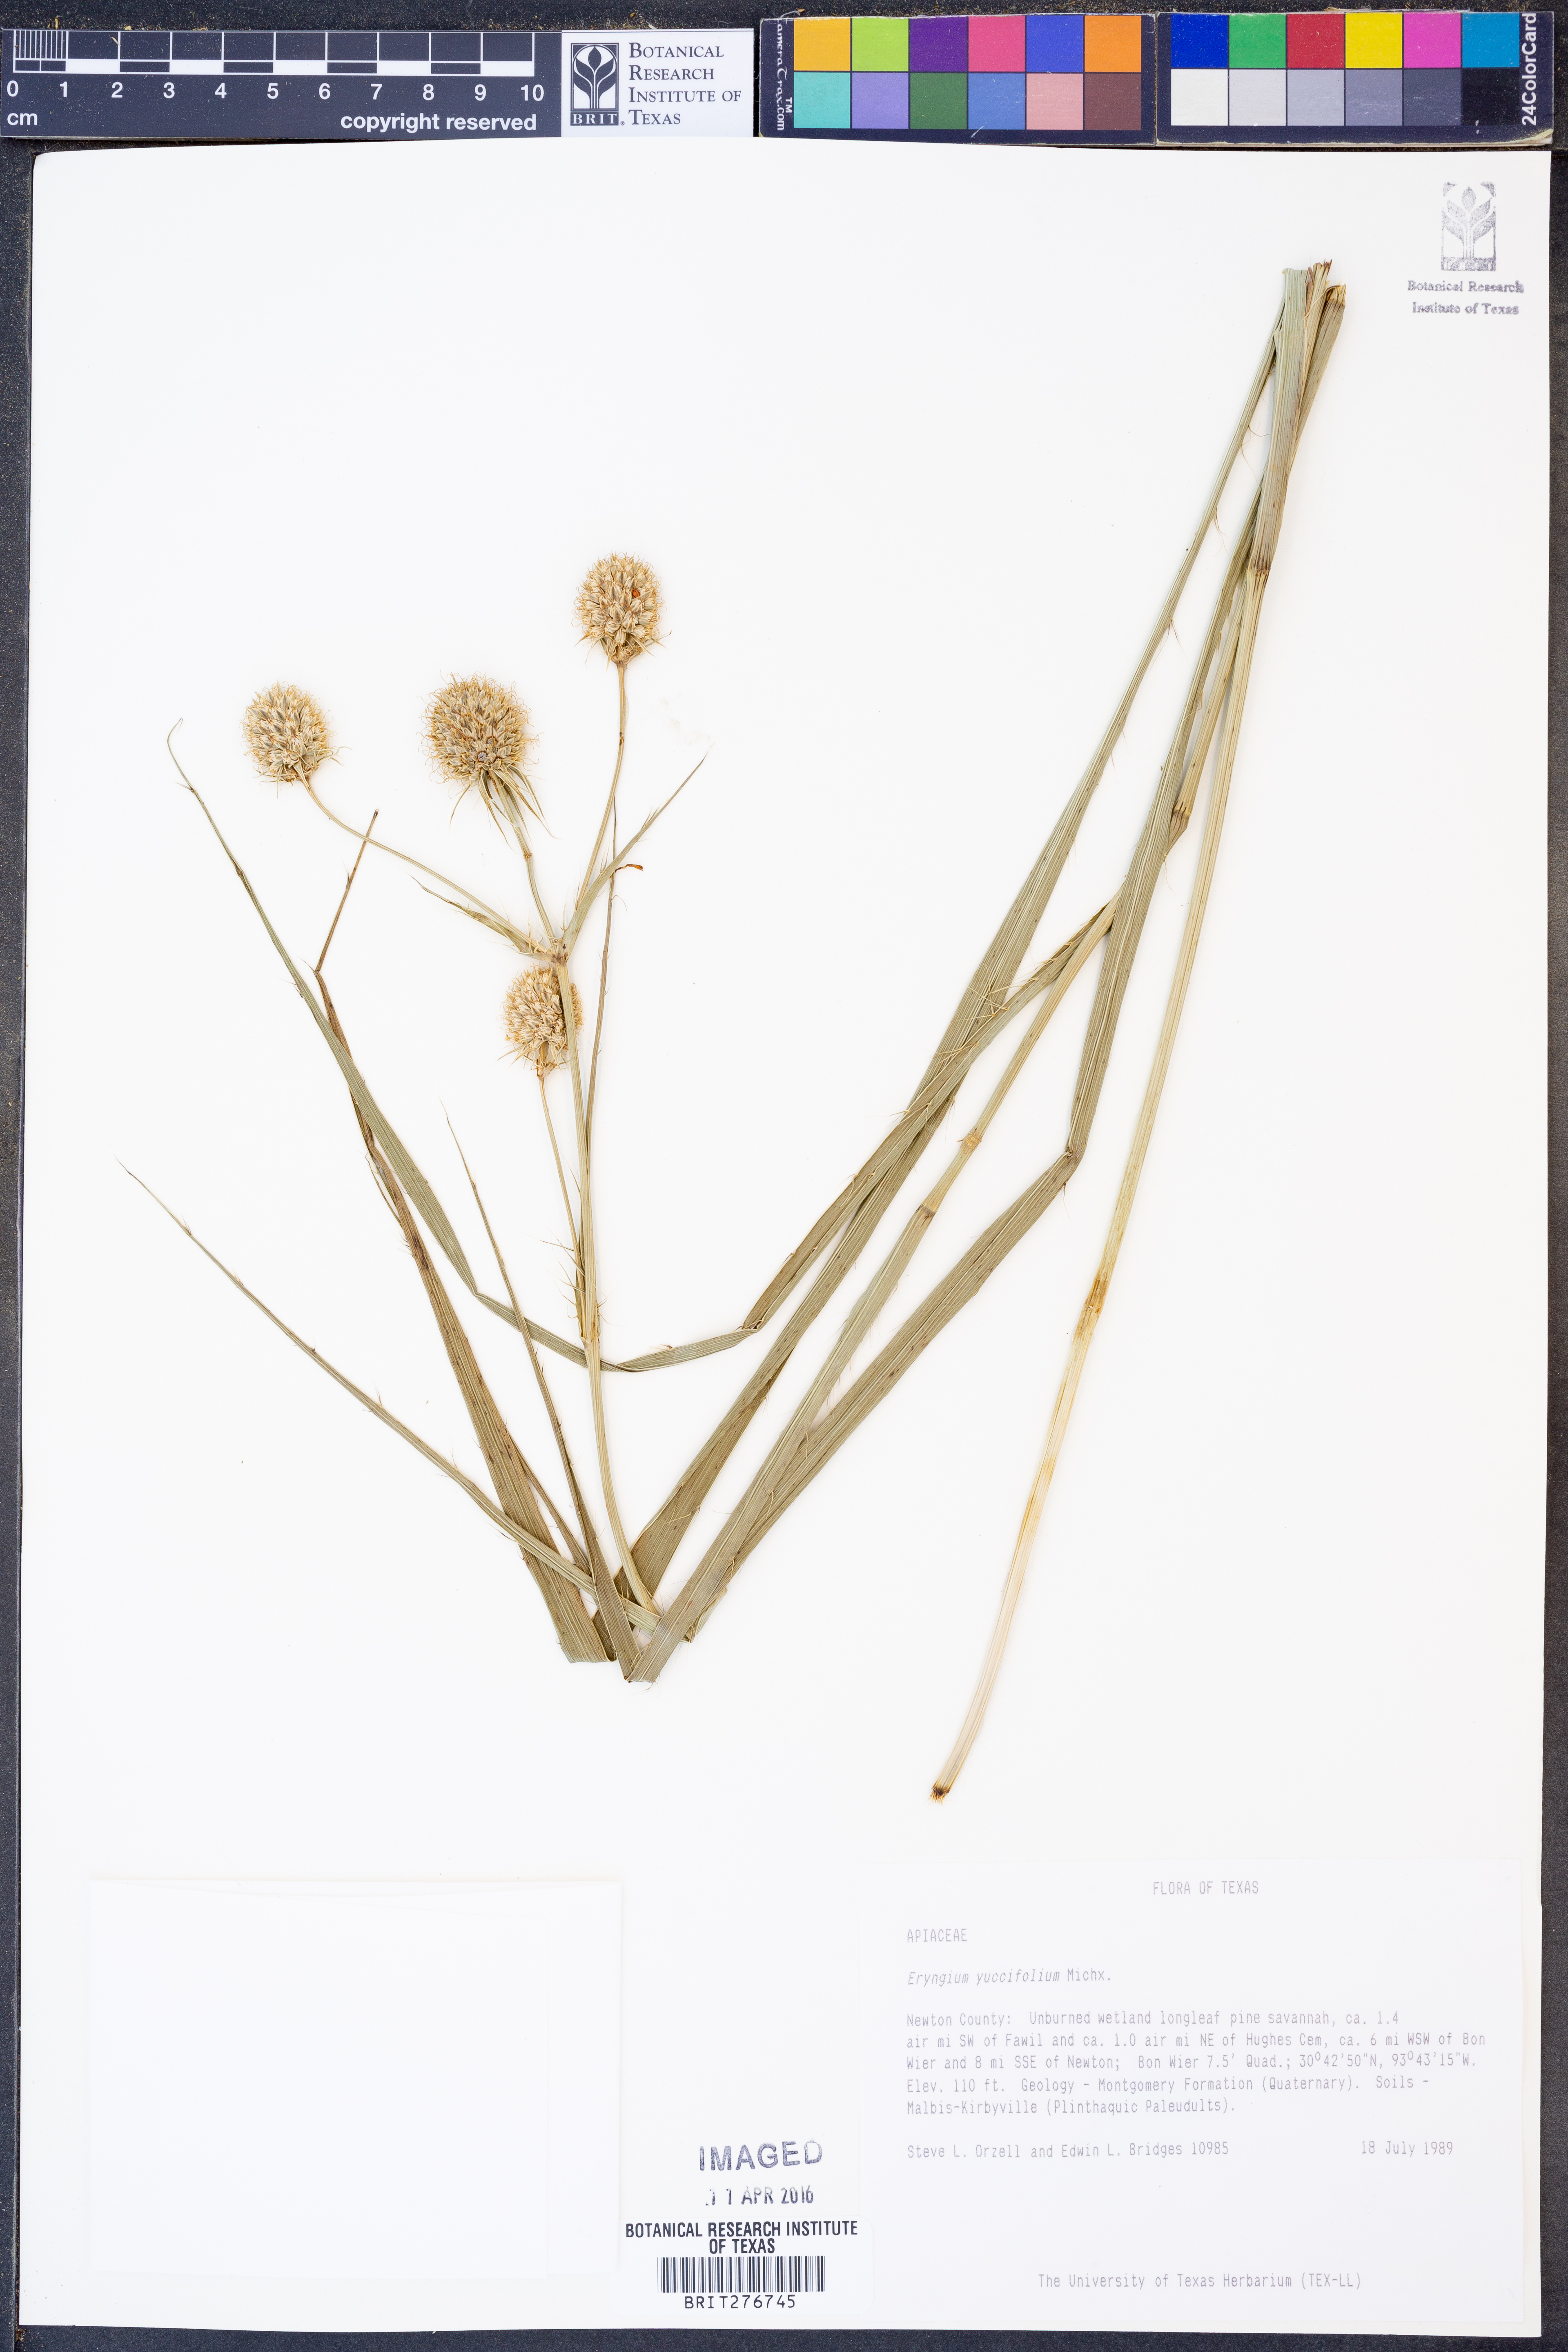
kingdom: Plantae
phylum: Tracheophyta
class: Magnoliopsida
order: Apiales
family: Apiaceae
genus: Eryngium
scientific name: Eryngium yuccifolium
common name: Button eryngo
